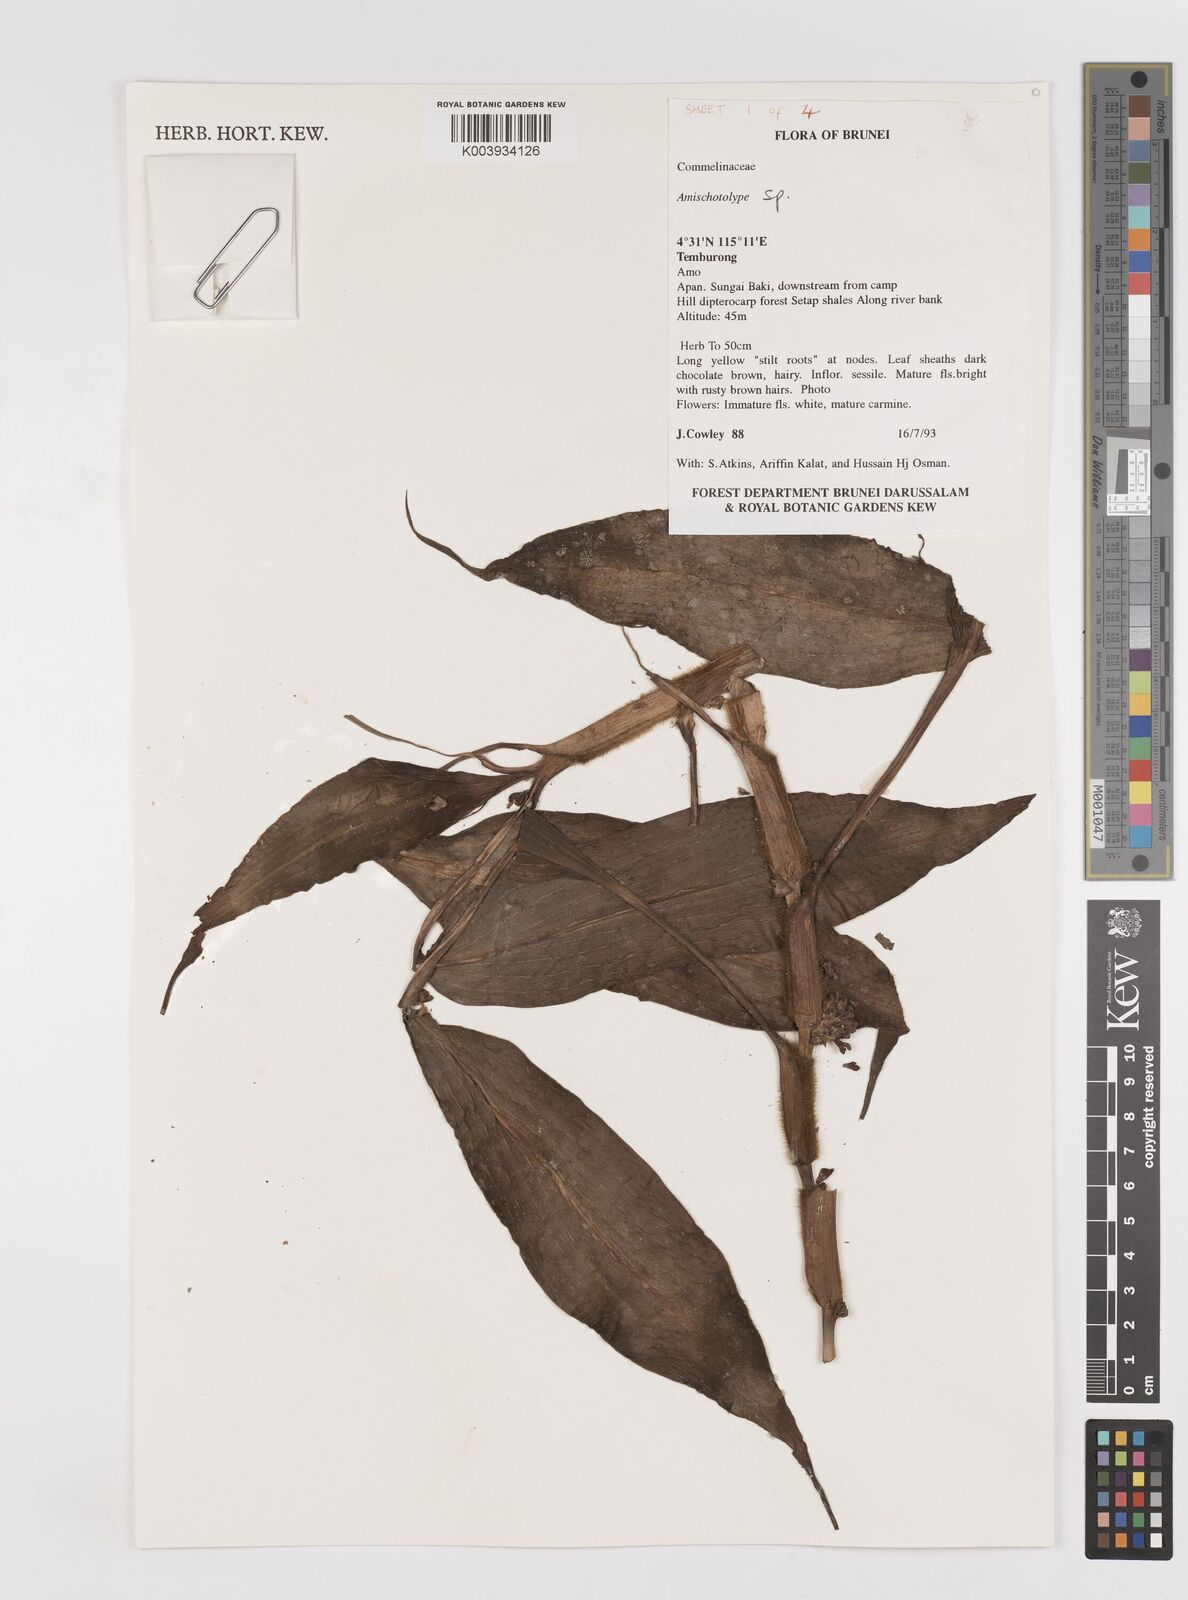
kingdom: Plantae
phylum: Tracheophyta
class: Liliopsida
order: Commelinales
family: Commelinaceae
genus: Amischotolype
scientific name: Amischotolype
